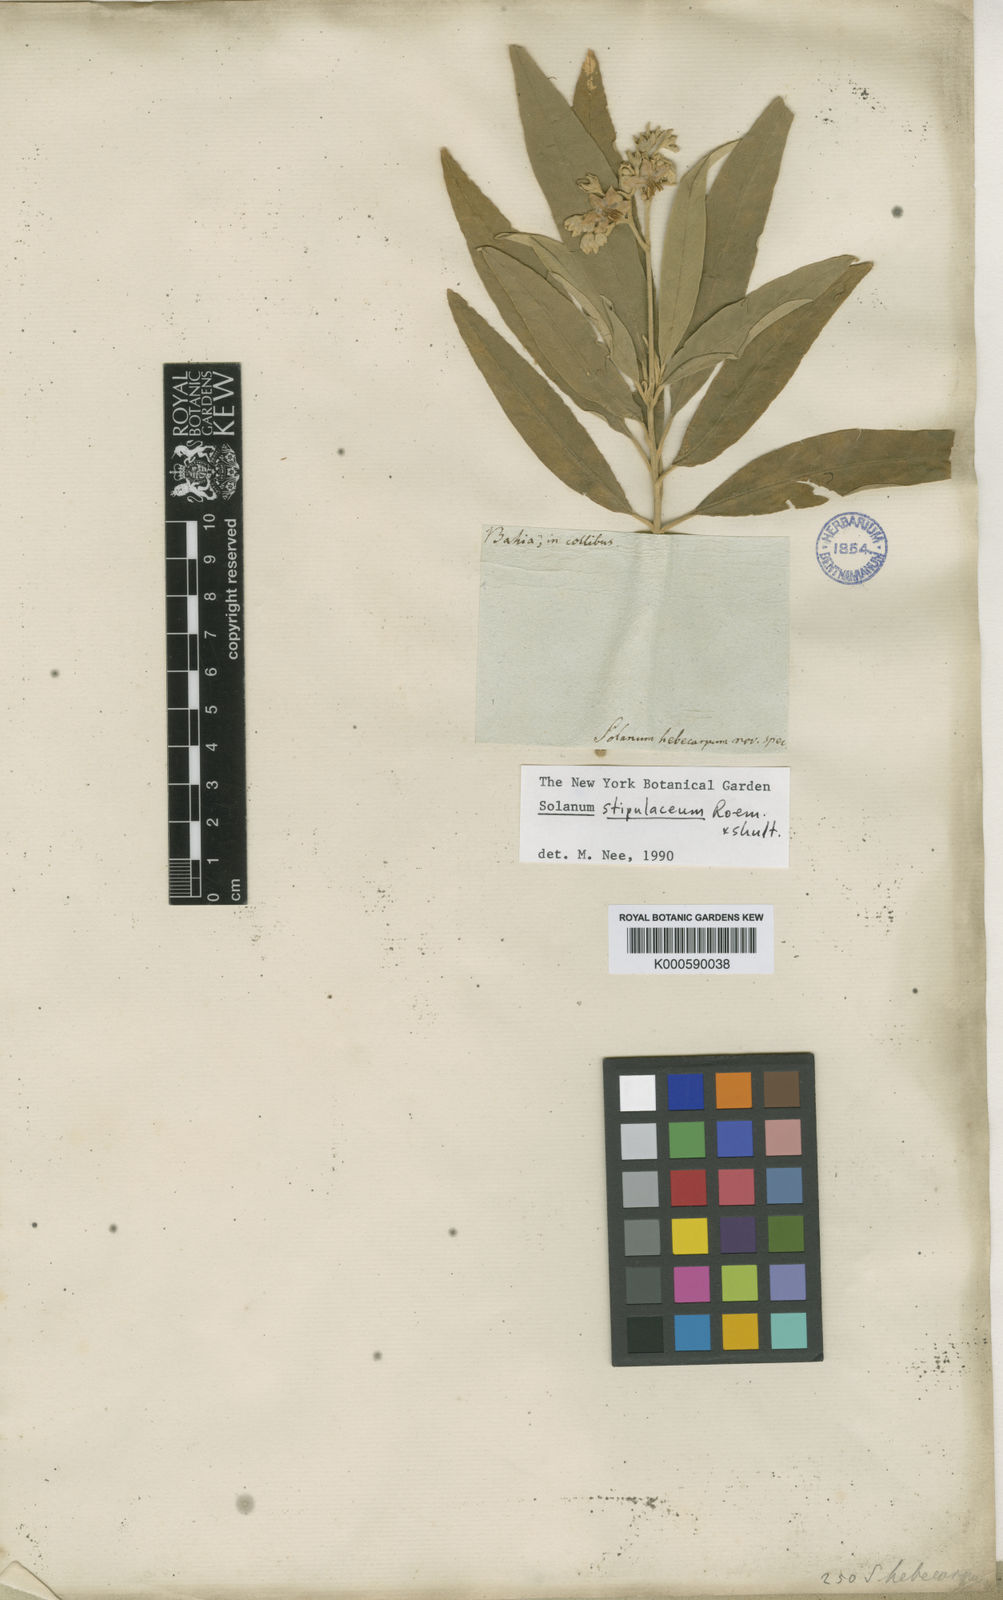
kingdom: Plantae
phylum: Tracheophyta
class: Magnoliopsida
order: Solanales
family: Solanaceae
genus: Solanum
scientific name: Solanum
